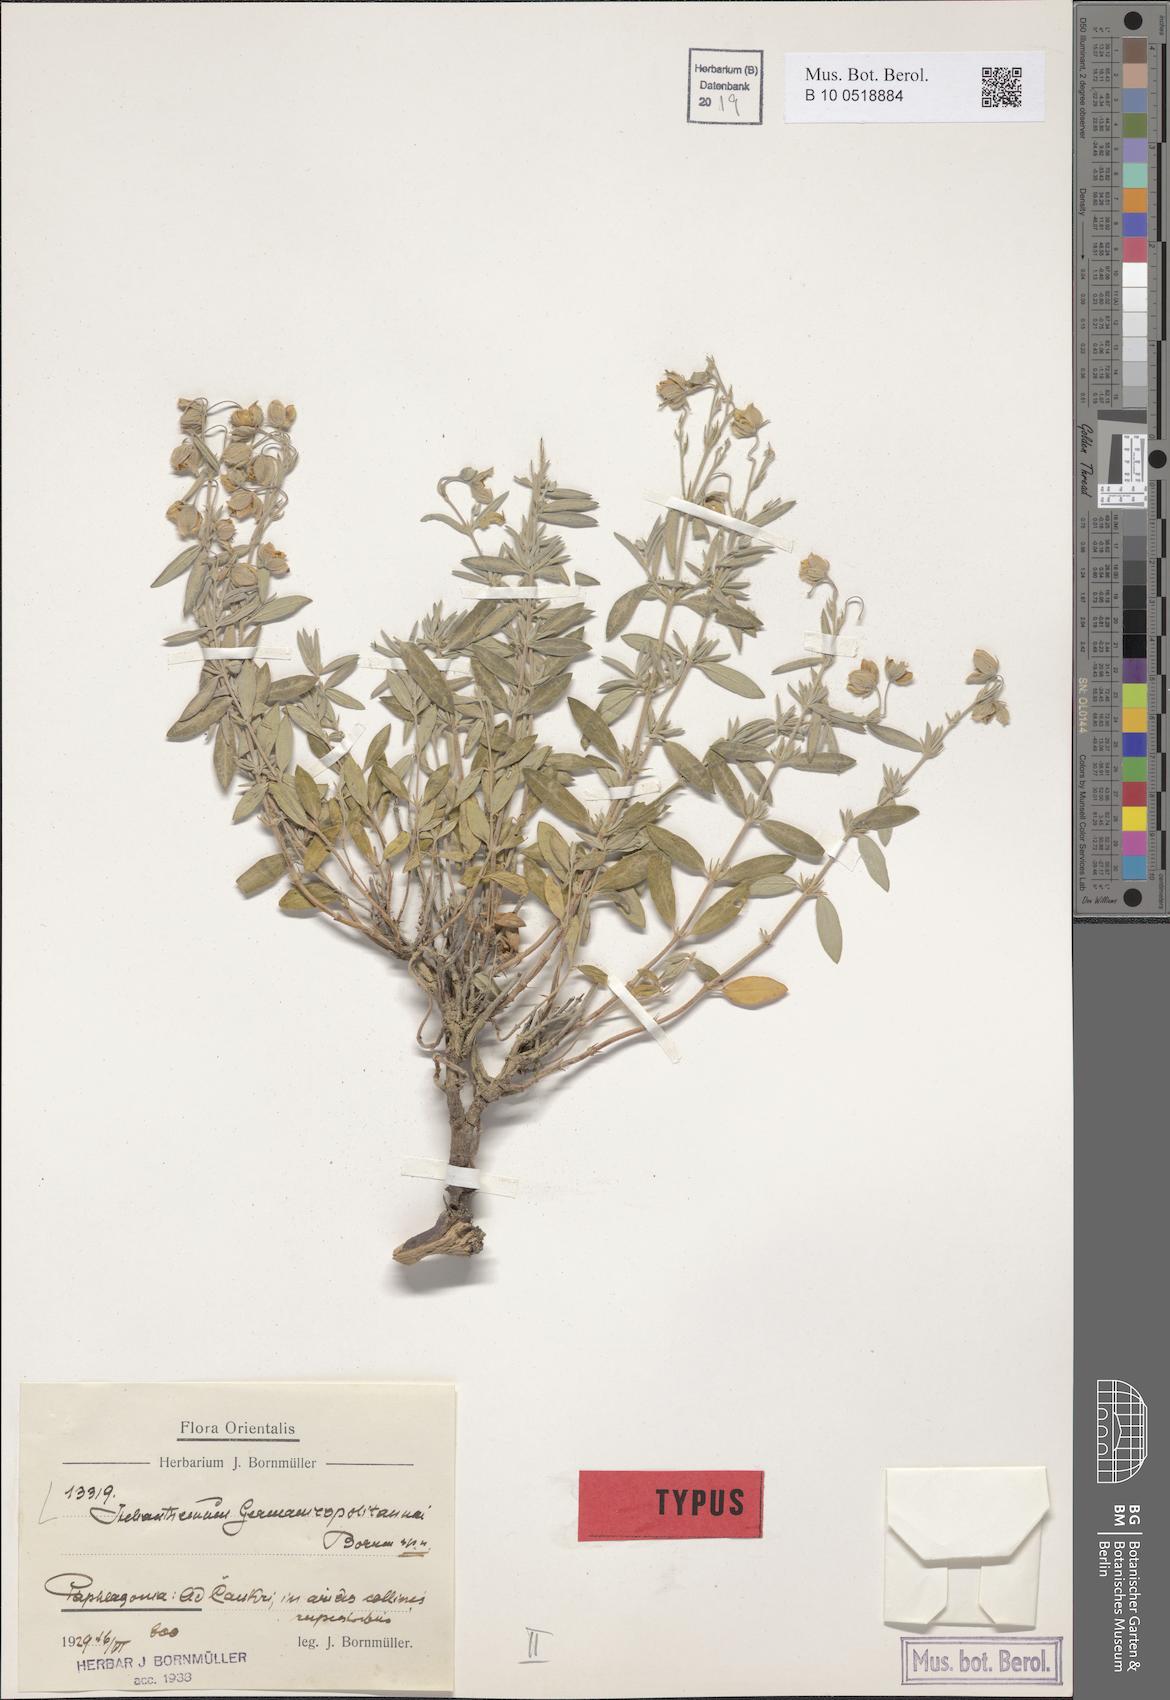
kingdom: Plantae
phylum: Tracheophyta
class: Magnoliopsida
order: Malvales
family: Cistaceae
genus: Helianthemum
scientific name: Helianthemum germanicopolitanum
